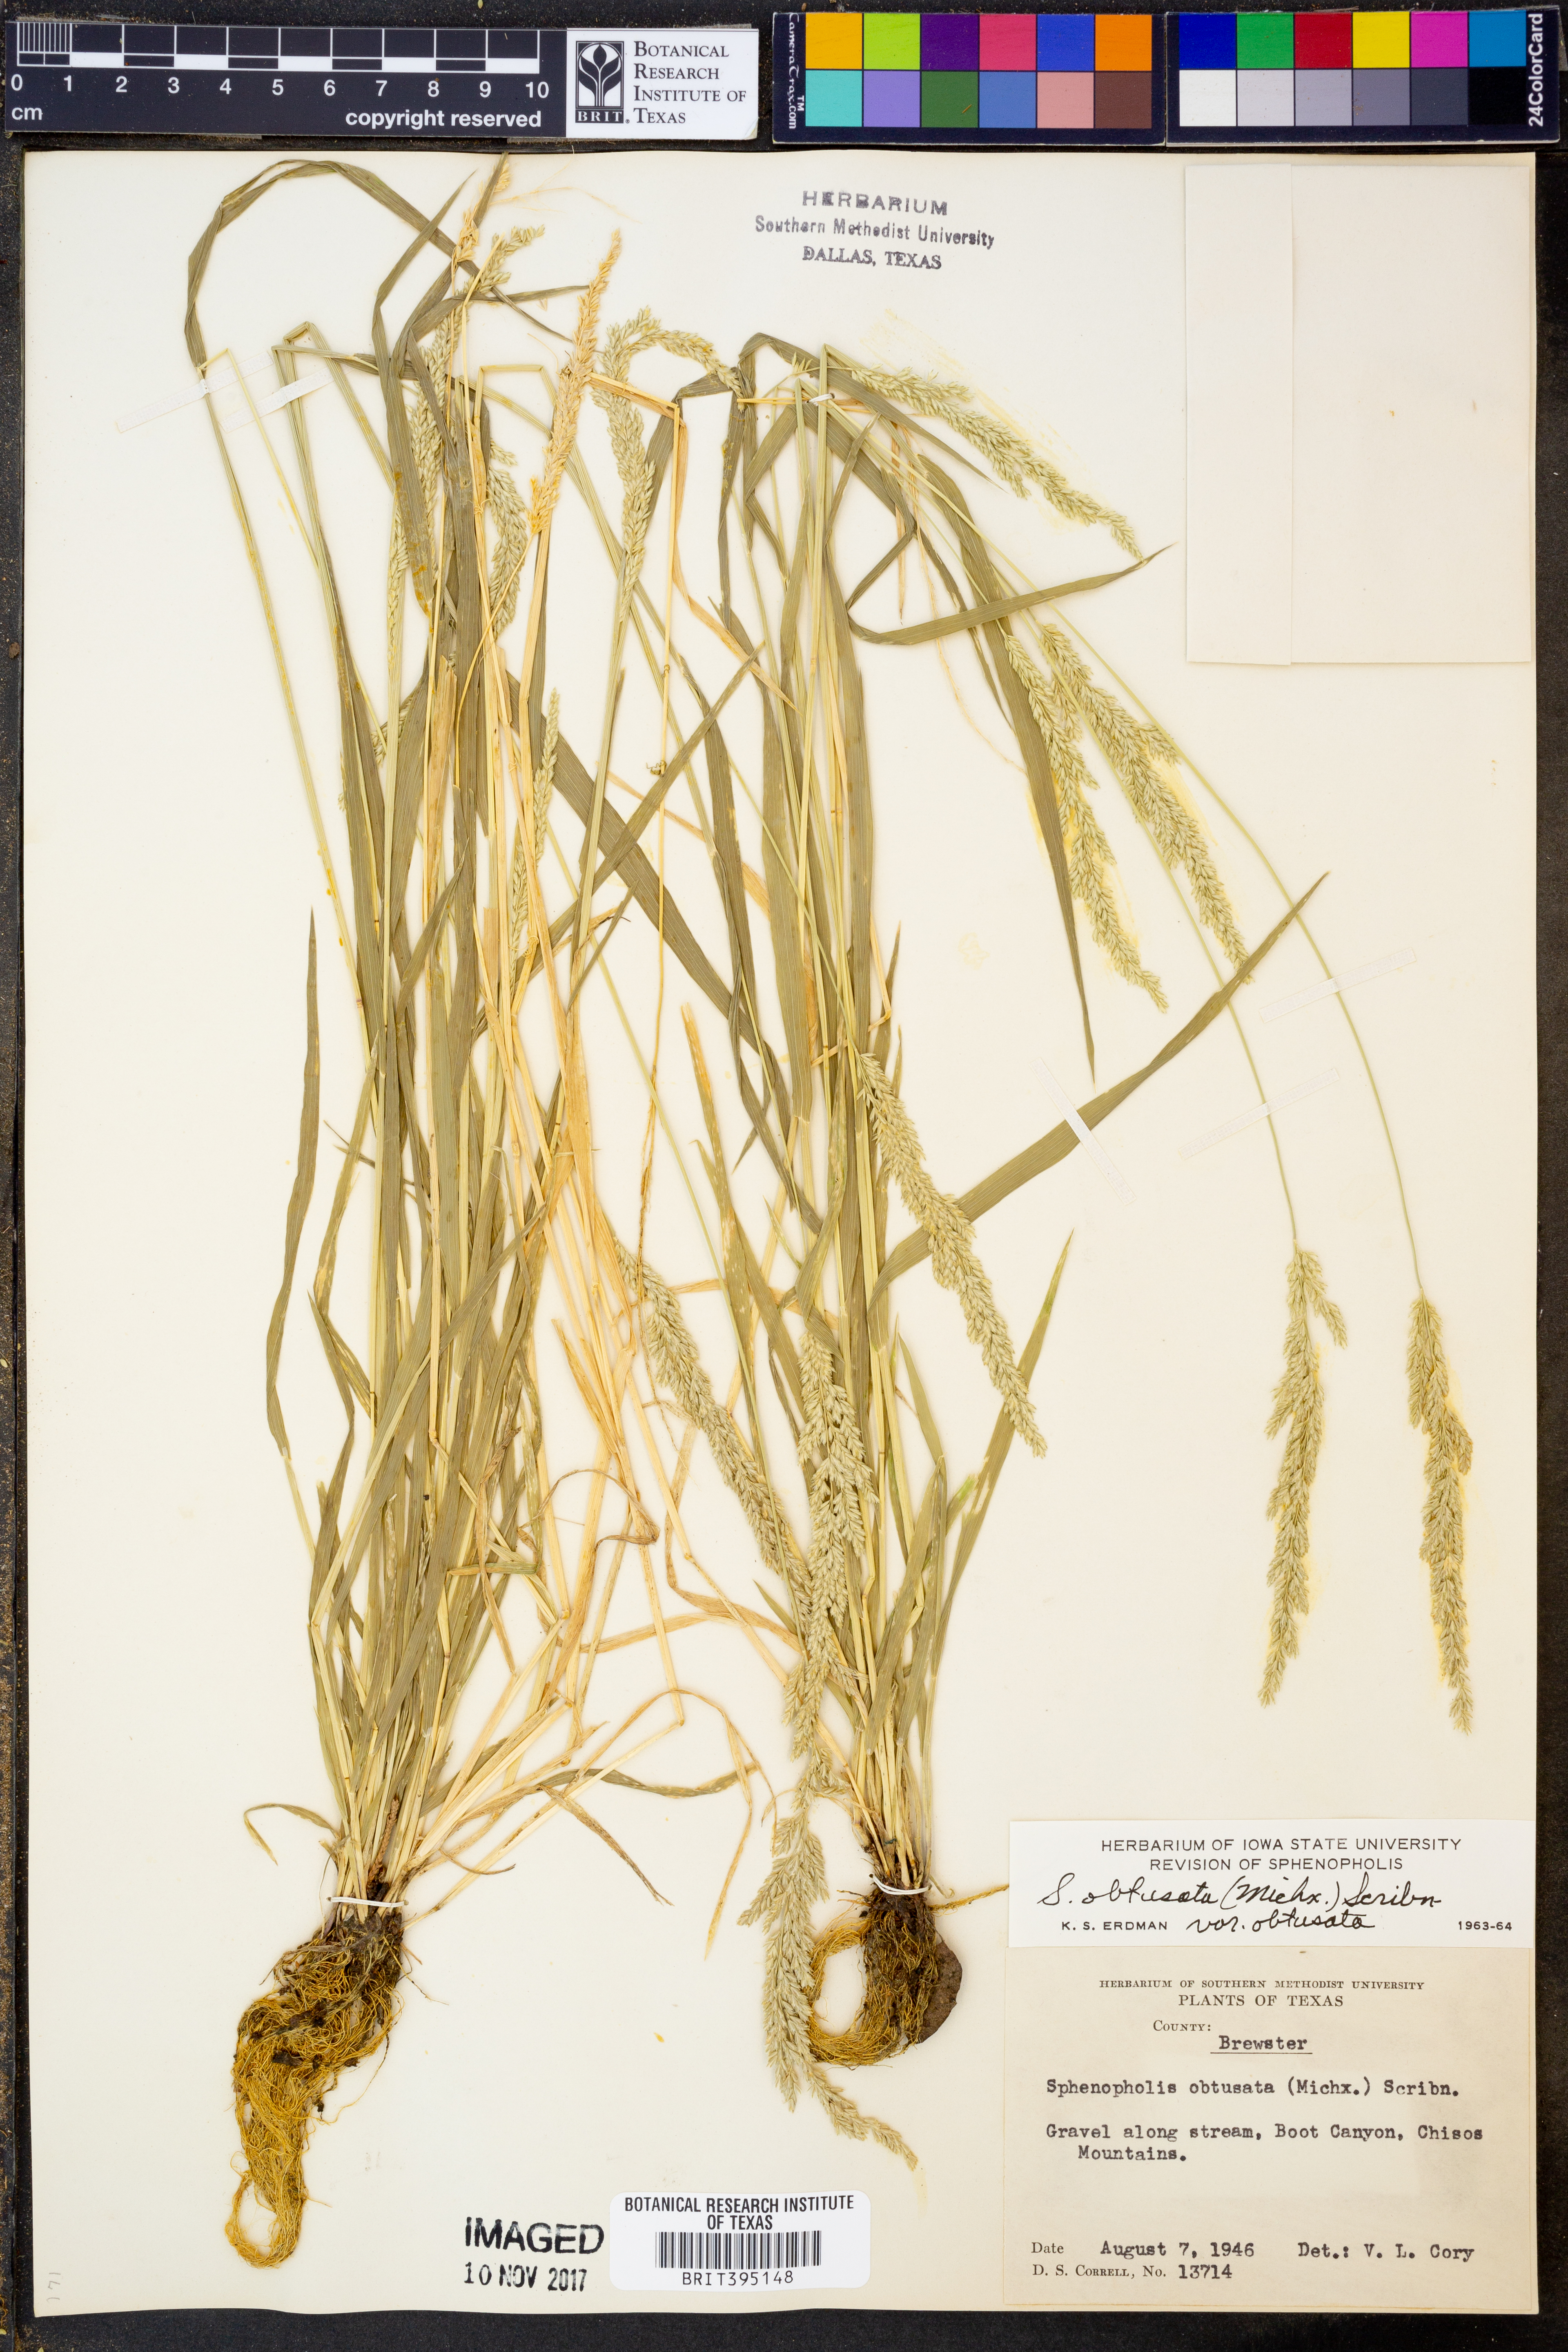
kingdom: Plantae
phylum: Tracheophyta
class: Liliopsida
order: Poales
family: Poaceae
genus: Sphenopholis
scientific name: Sphenopholis obtusata
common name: Prairie grass
